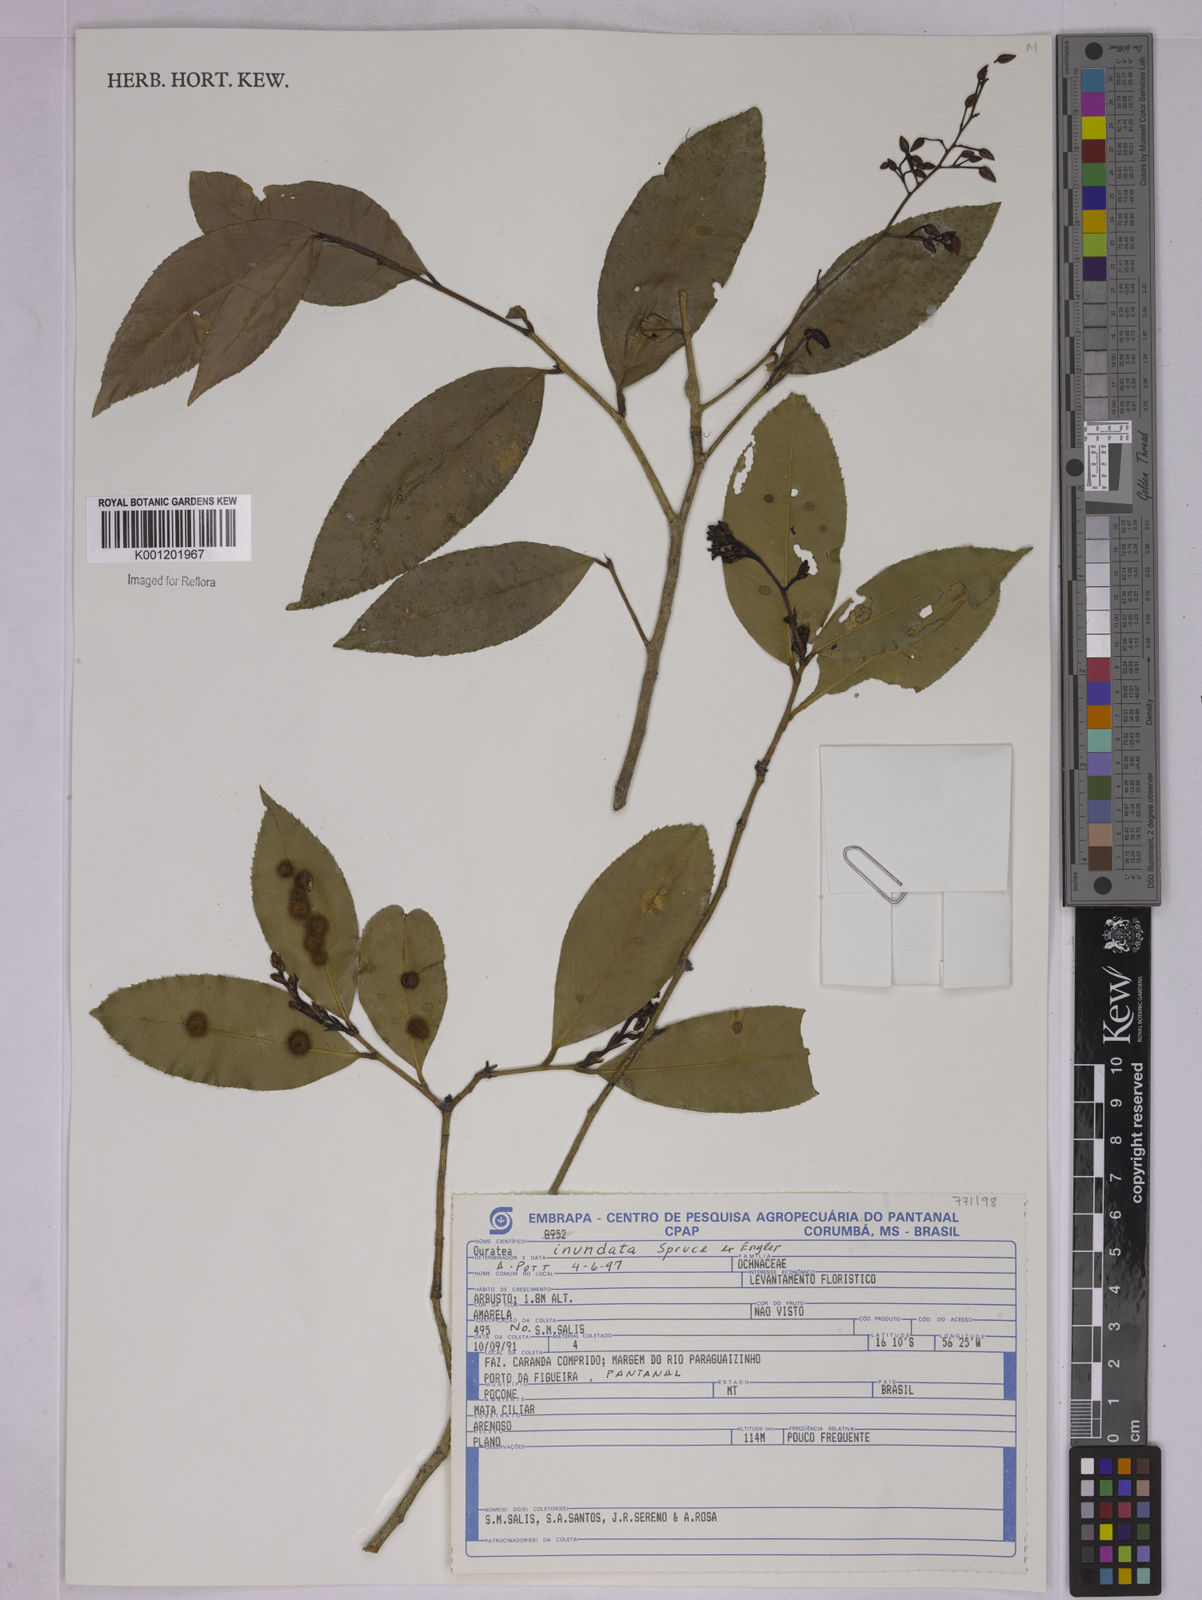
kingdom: Plantae
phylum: Tracheophyta
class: Magnoliopsida
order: Malpighiales
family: Ochnaceae
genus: Ouratea
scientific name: Ouratea inundata
